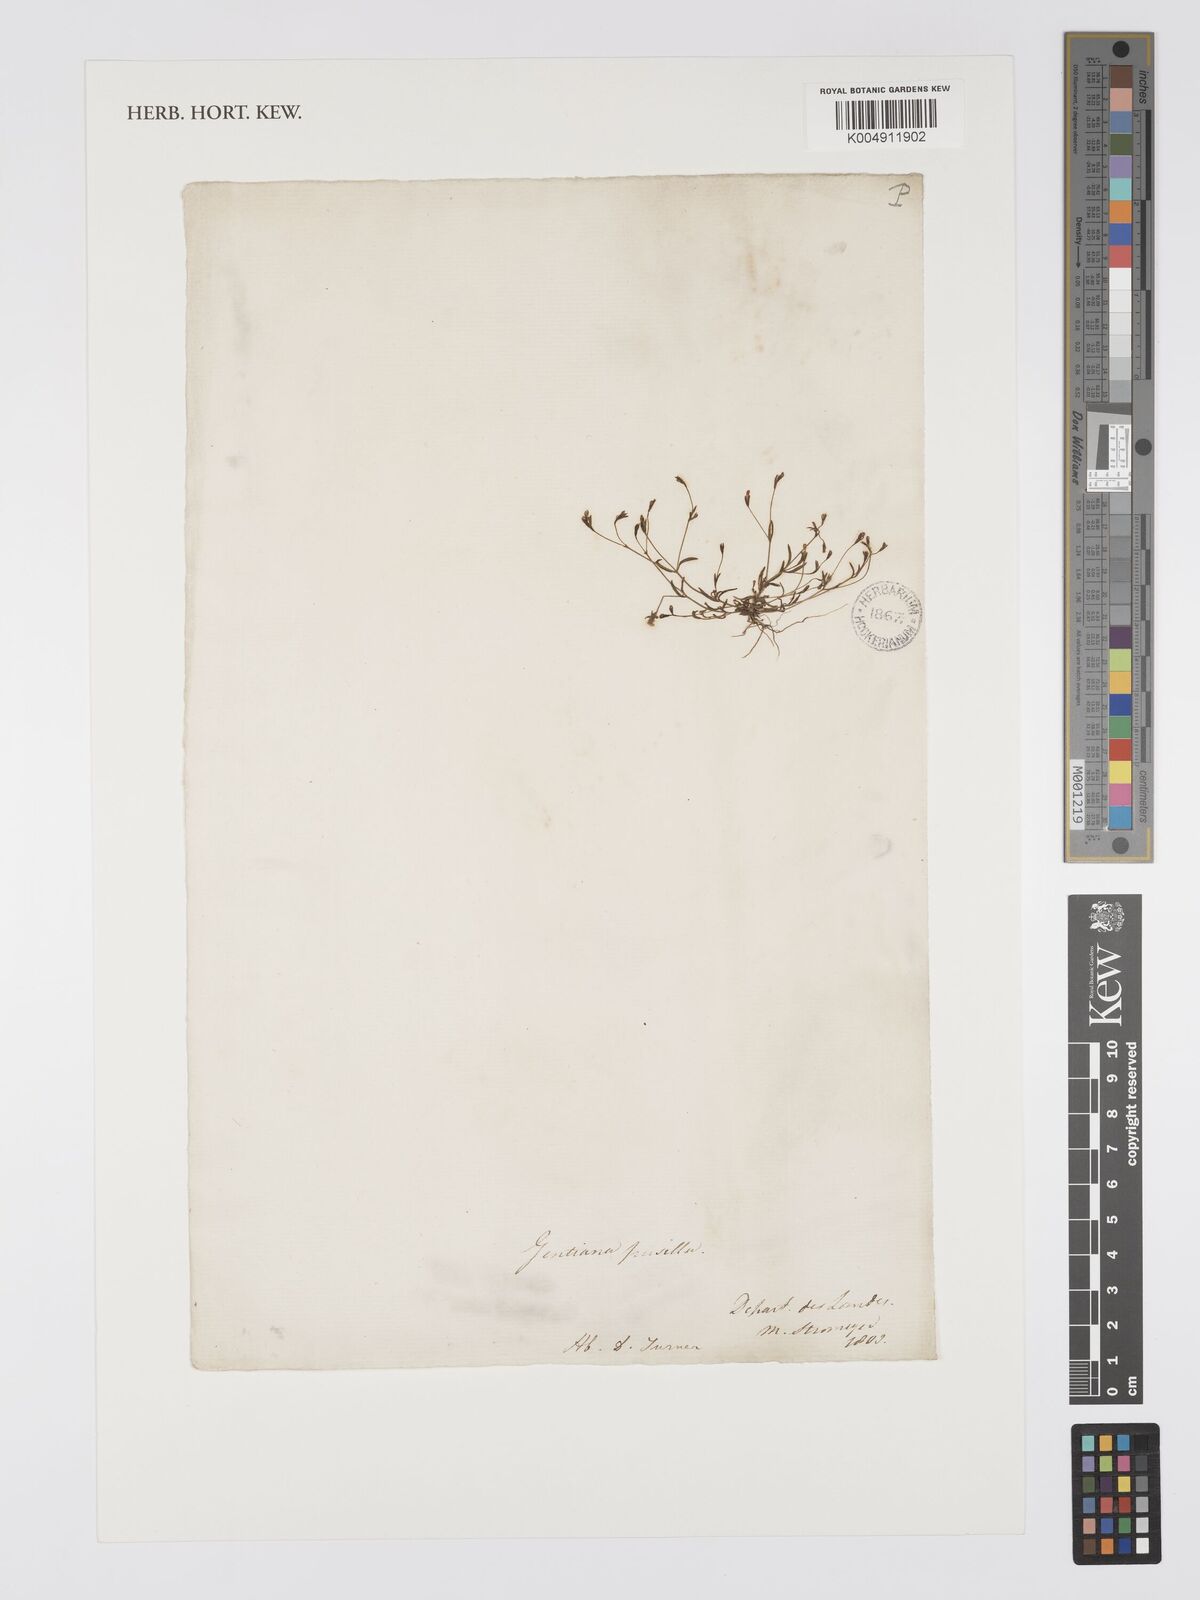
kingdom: Plantae
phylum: Tracheophyta
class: Magnoliopsida
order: Gentianales
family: Gentianaceae
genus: Exaculum
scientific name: Exaculum pusillum
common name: Guernsey centaury
